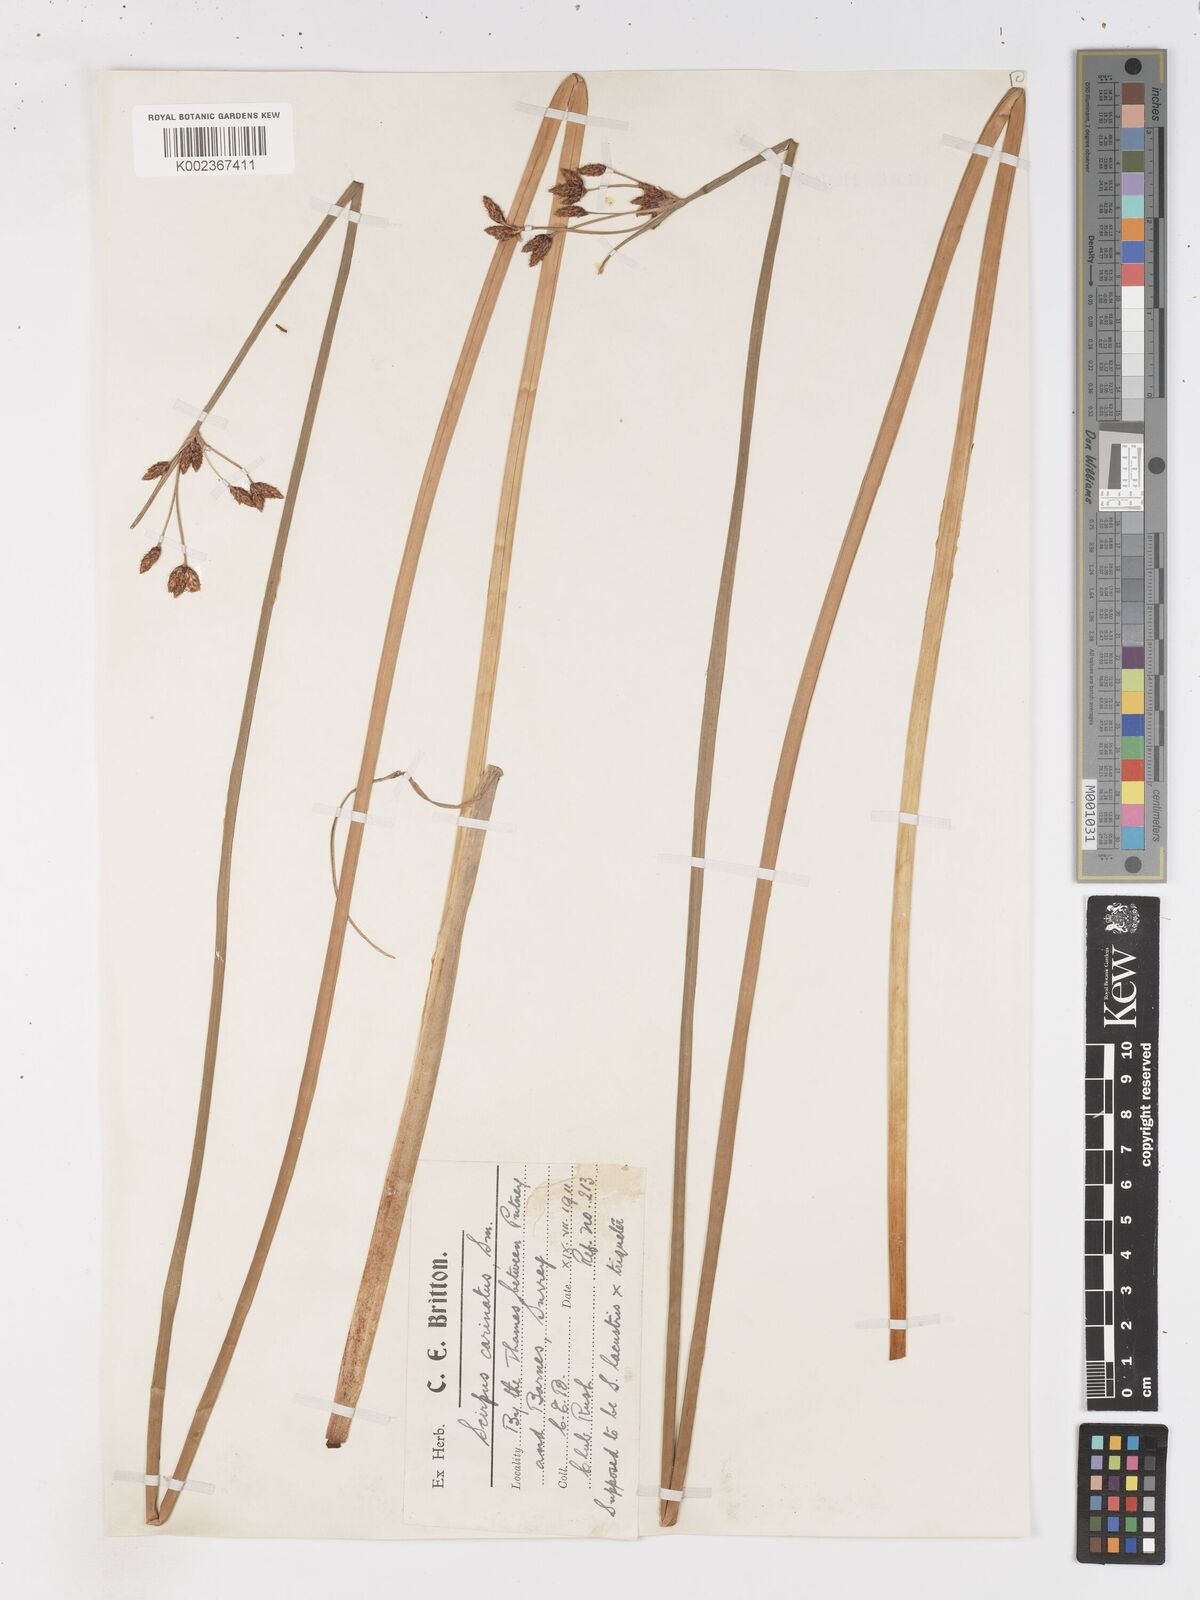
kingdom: Plantae
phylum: Tracheophyta
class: Liliopsida
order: Poales
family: Cyperaceae
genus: Isolepis
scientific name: Isolepis carinata
